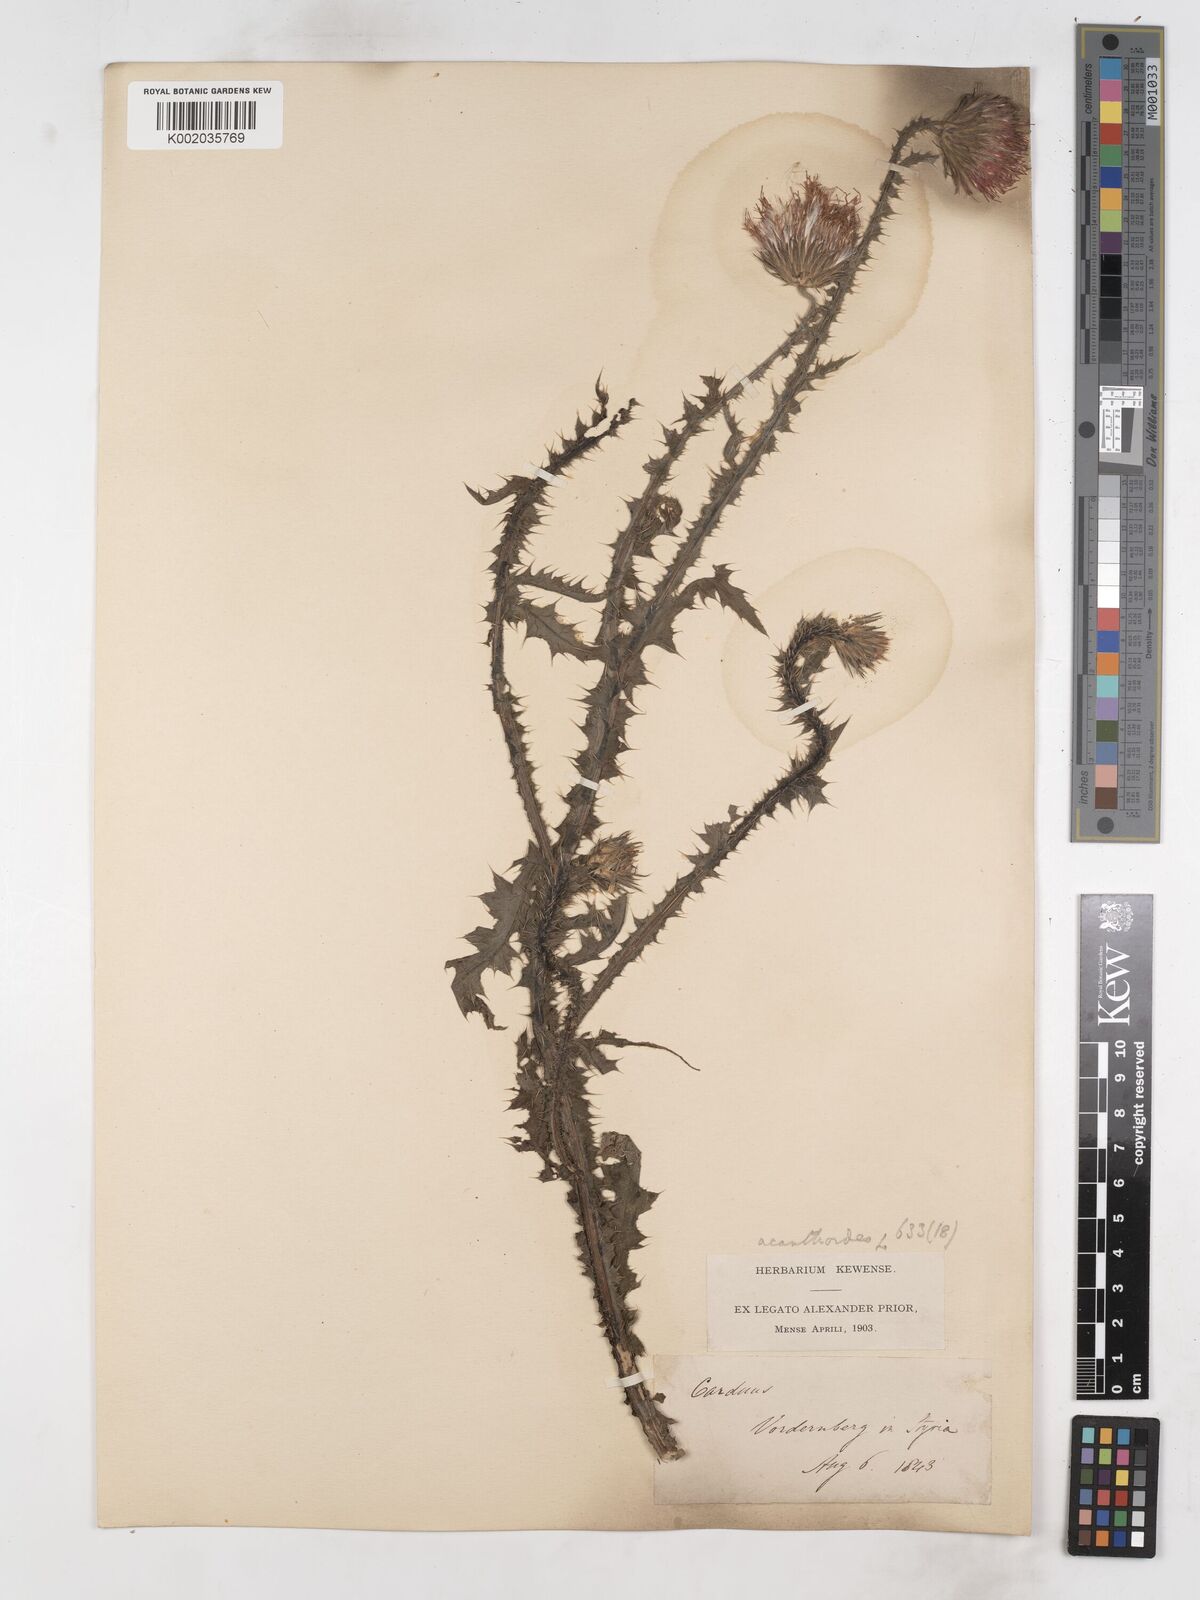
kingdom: Plantae
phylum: Tracheophyta
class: Magnoliopsida
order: Asterales
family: Asteraceae
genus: Carduus
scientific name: Carduus acanthoides
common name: Plumeless thistle
